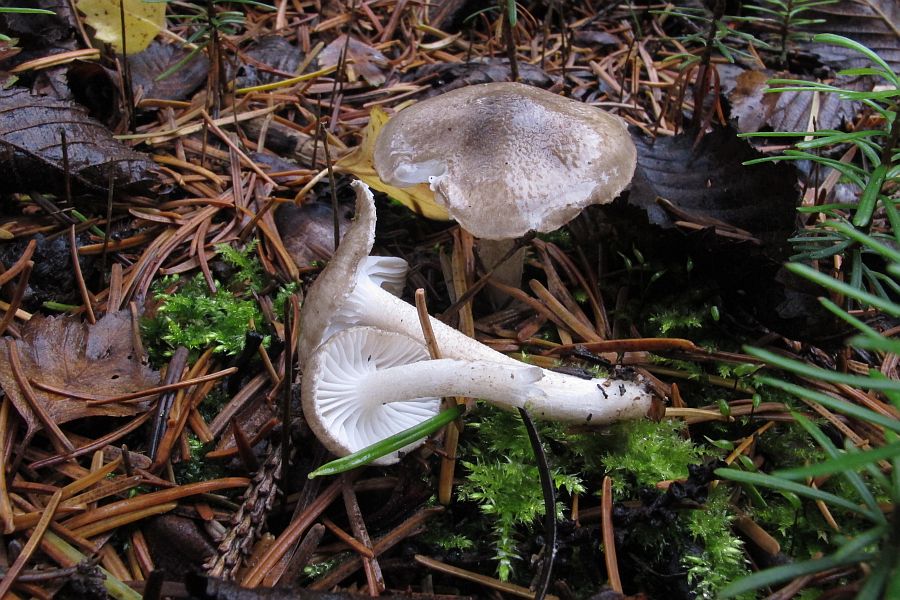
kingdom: Fungi
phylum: Basidiomycota
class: Agaricomycetes
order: Agaricales
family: Hygrophoraceae
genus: Hygrophorus
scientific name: Hygrophorus pustulatus
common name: mørkprikket sneglehat
